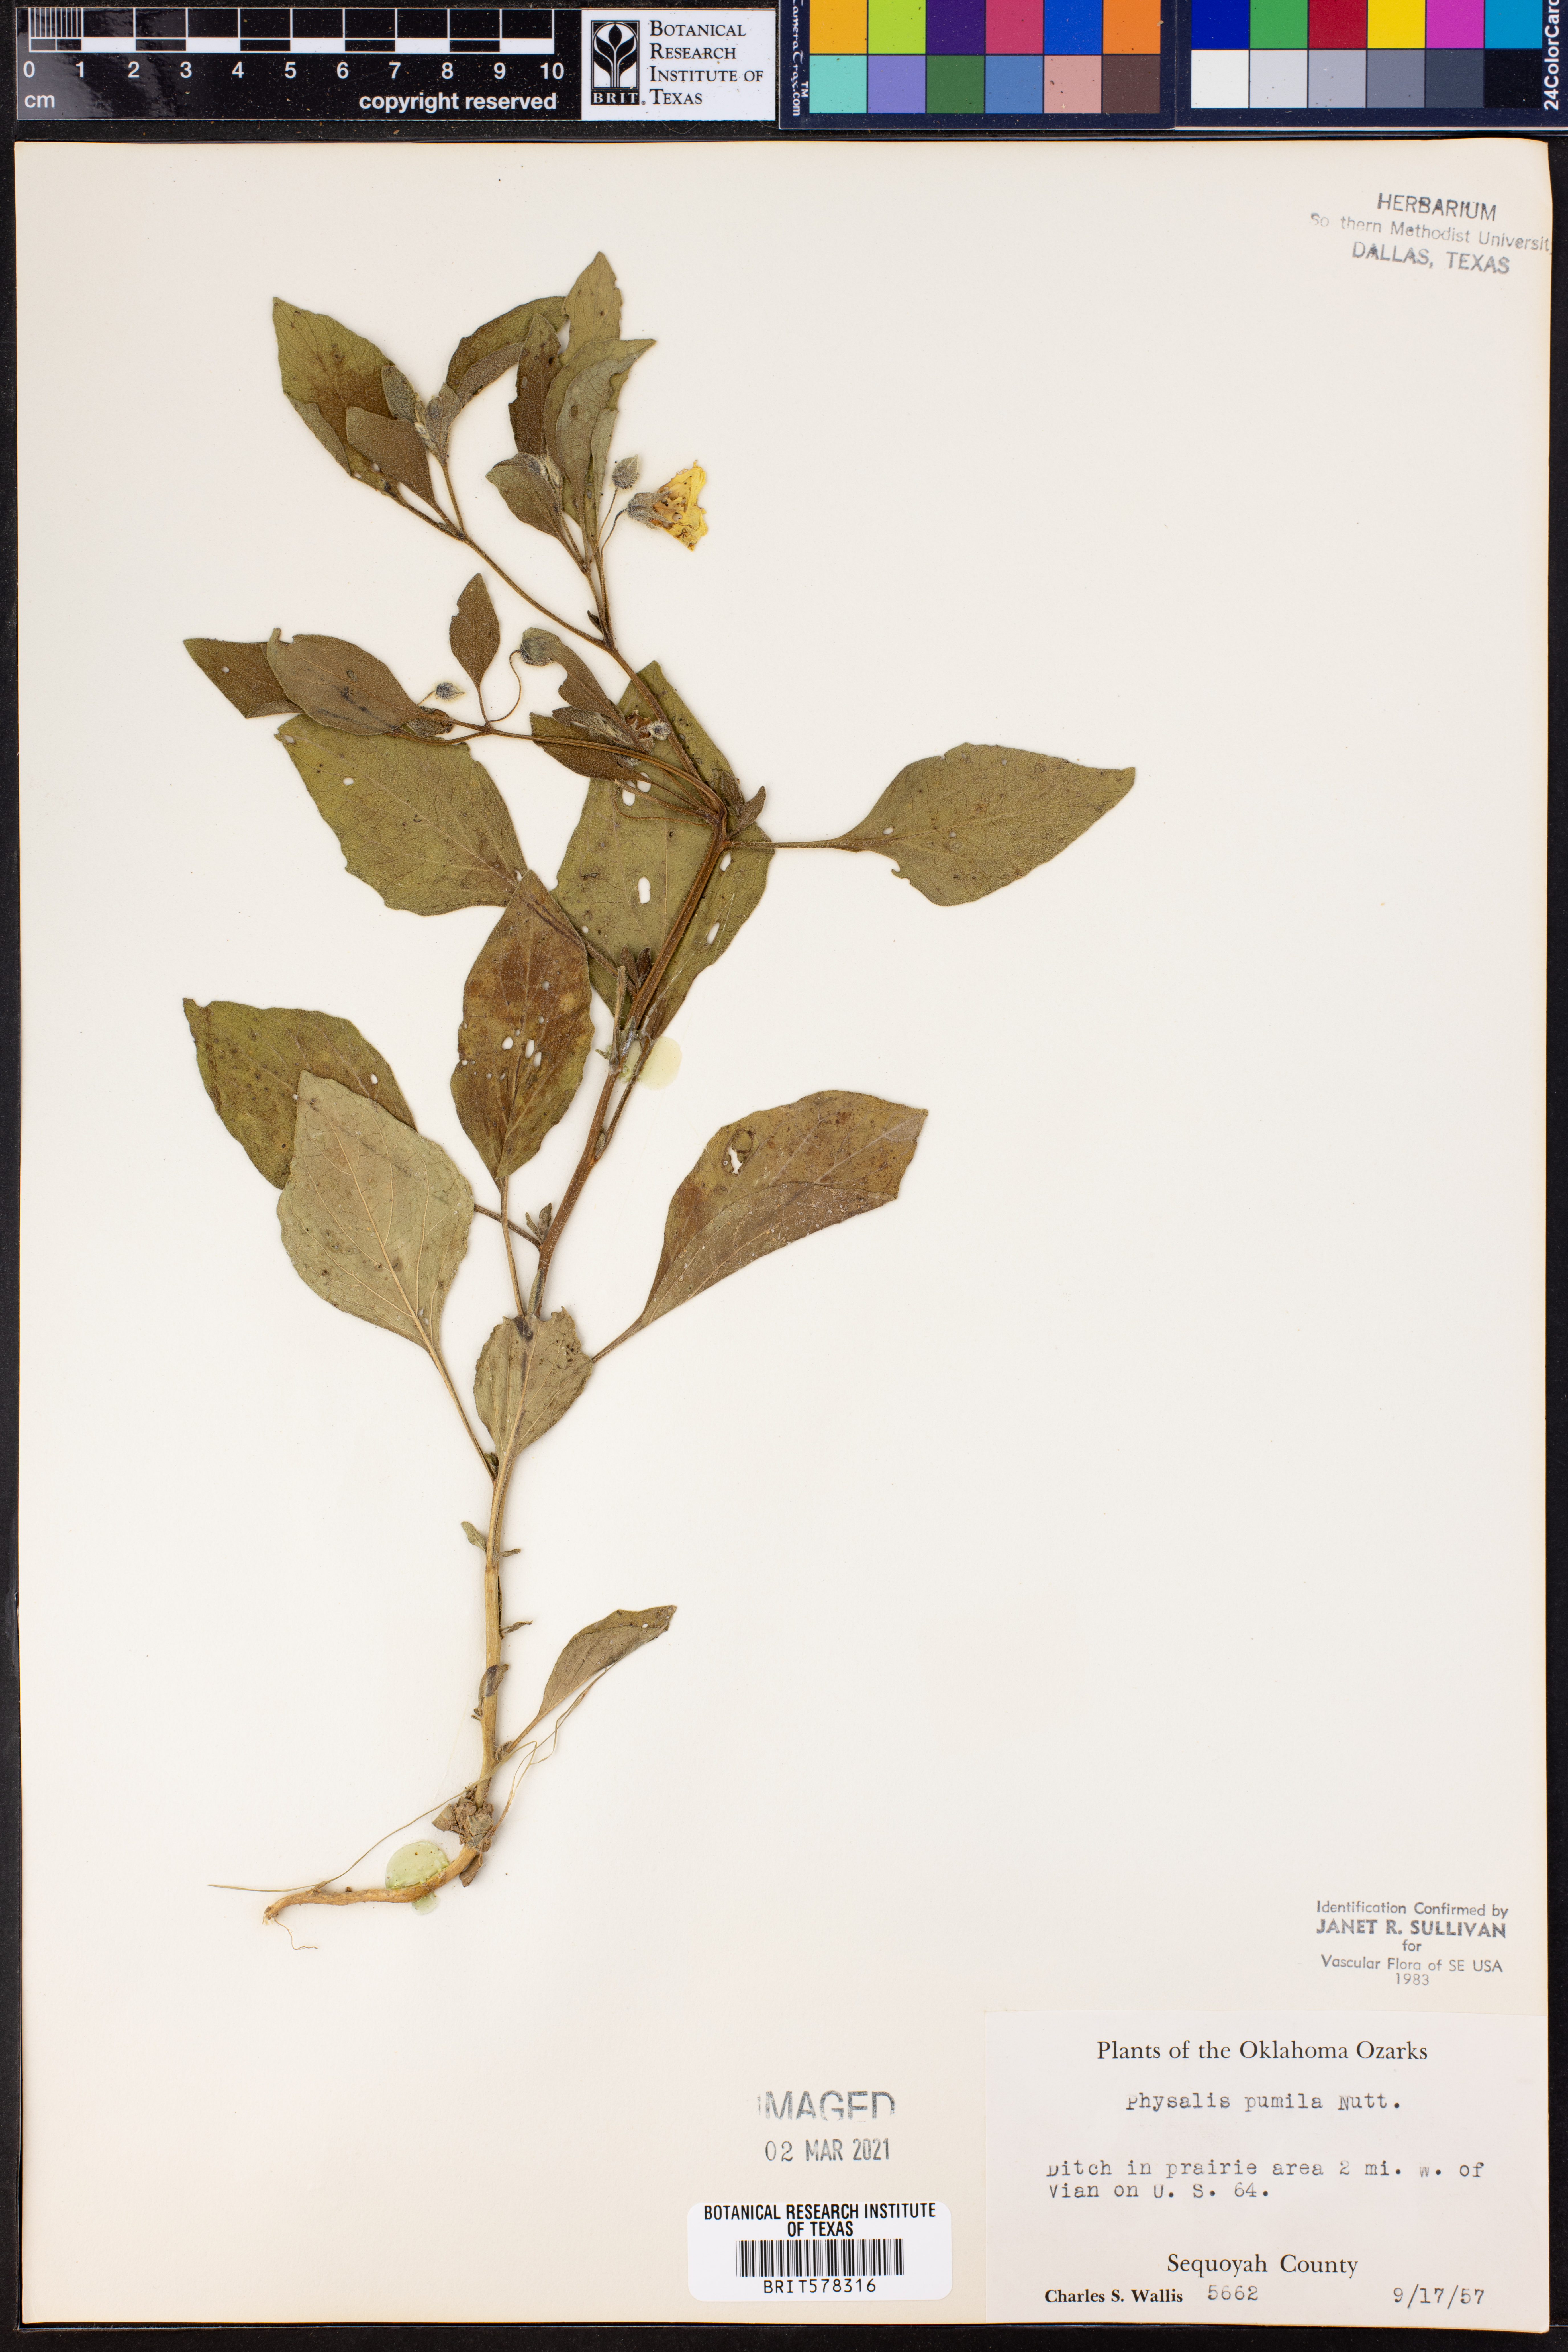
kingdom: Plantae
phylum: Tracheophyta
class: Magnoliopsida
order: Solanales
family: Solanaceae
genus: Physalis
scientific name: Physalis pumila
